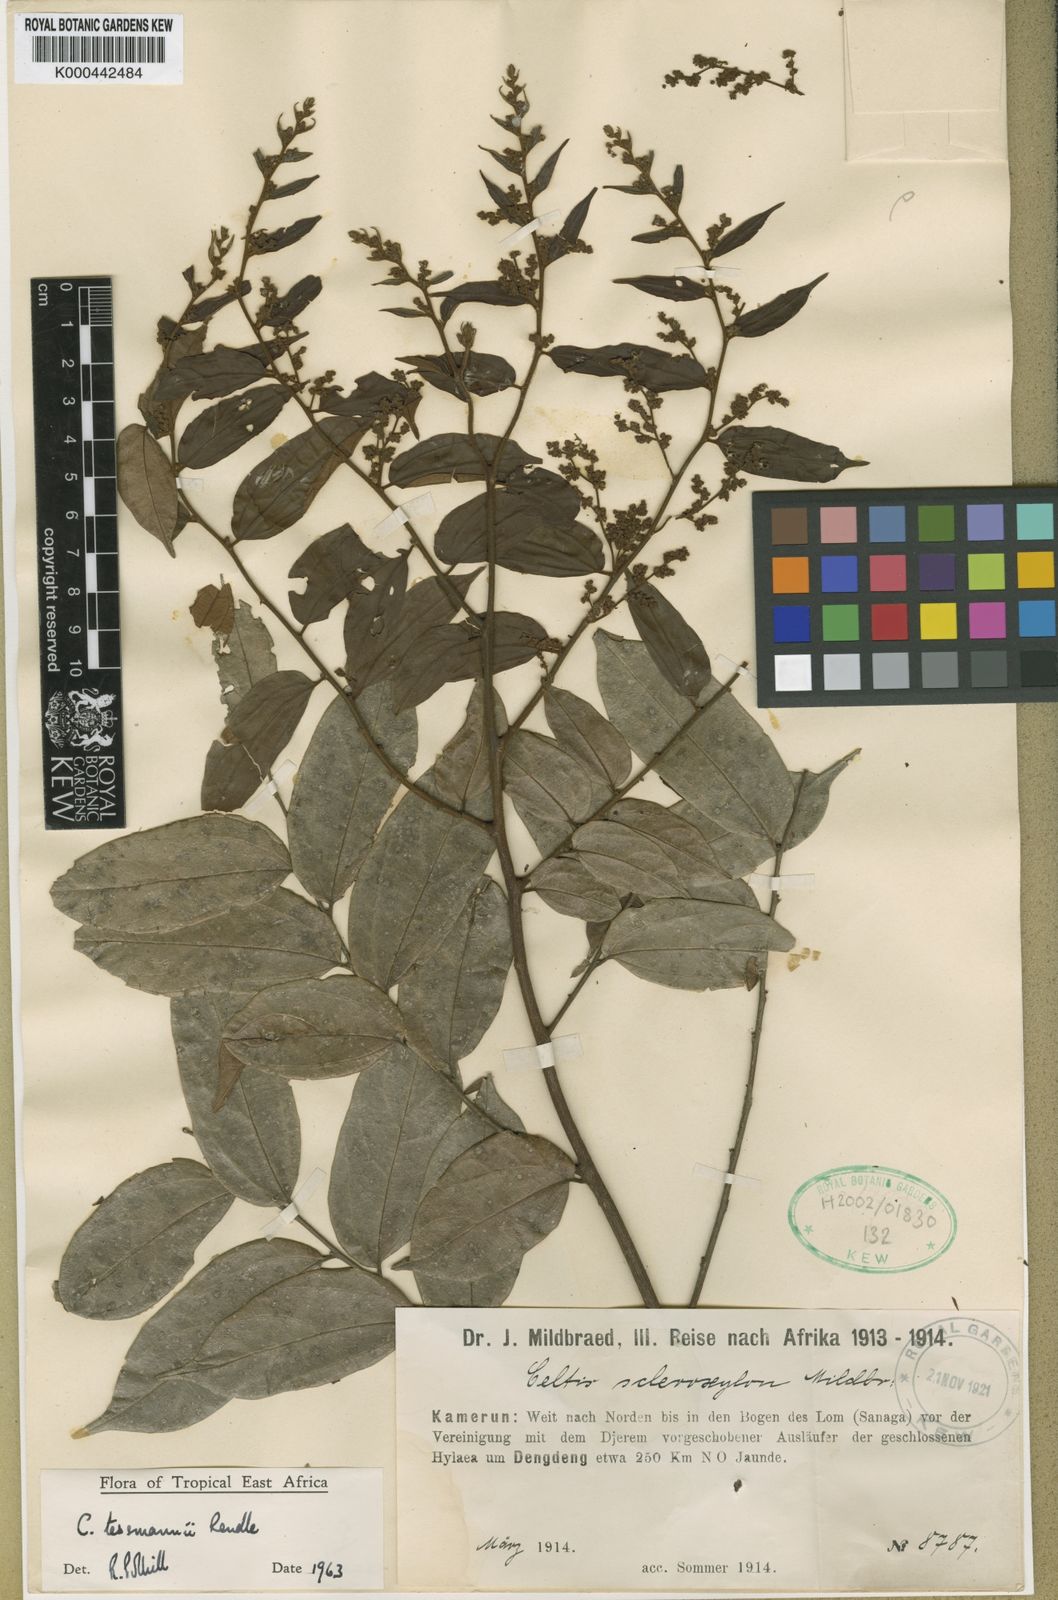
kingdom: Plantae
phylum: Tracheophyta
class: Magnoliopsida
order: Rosales
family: Cannabaceae
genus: Celtis
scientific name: Celtis tessmannii
